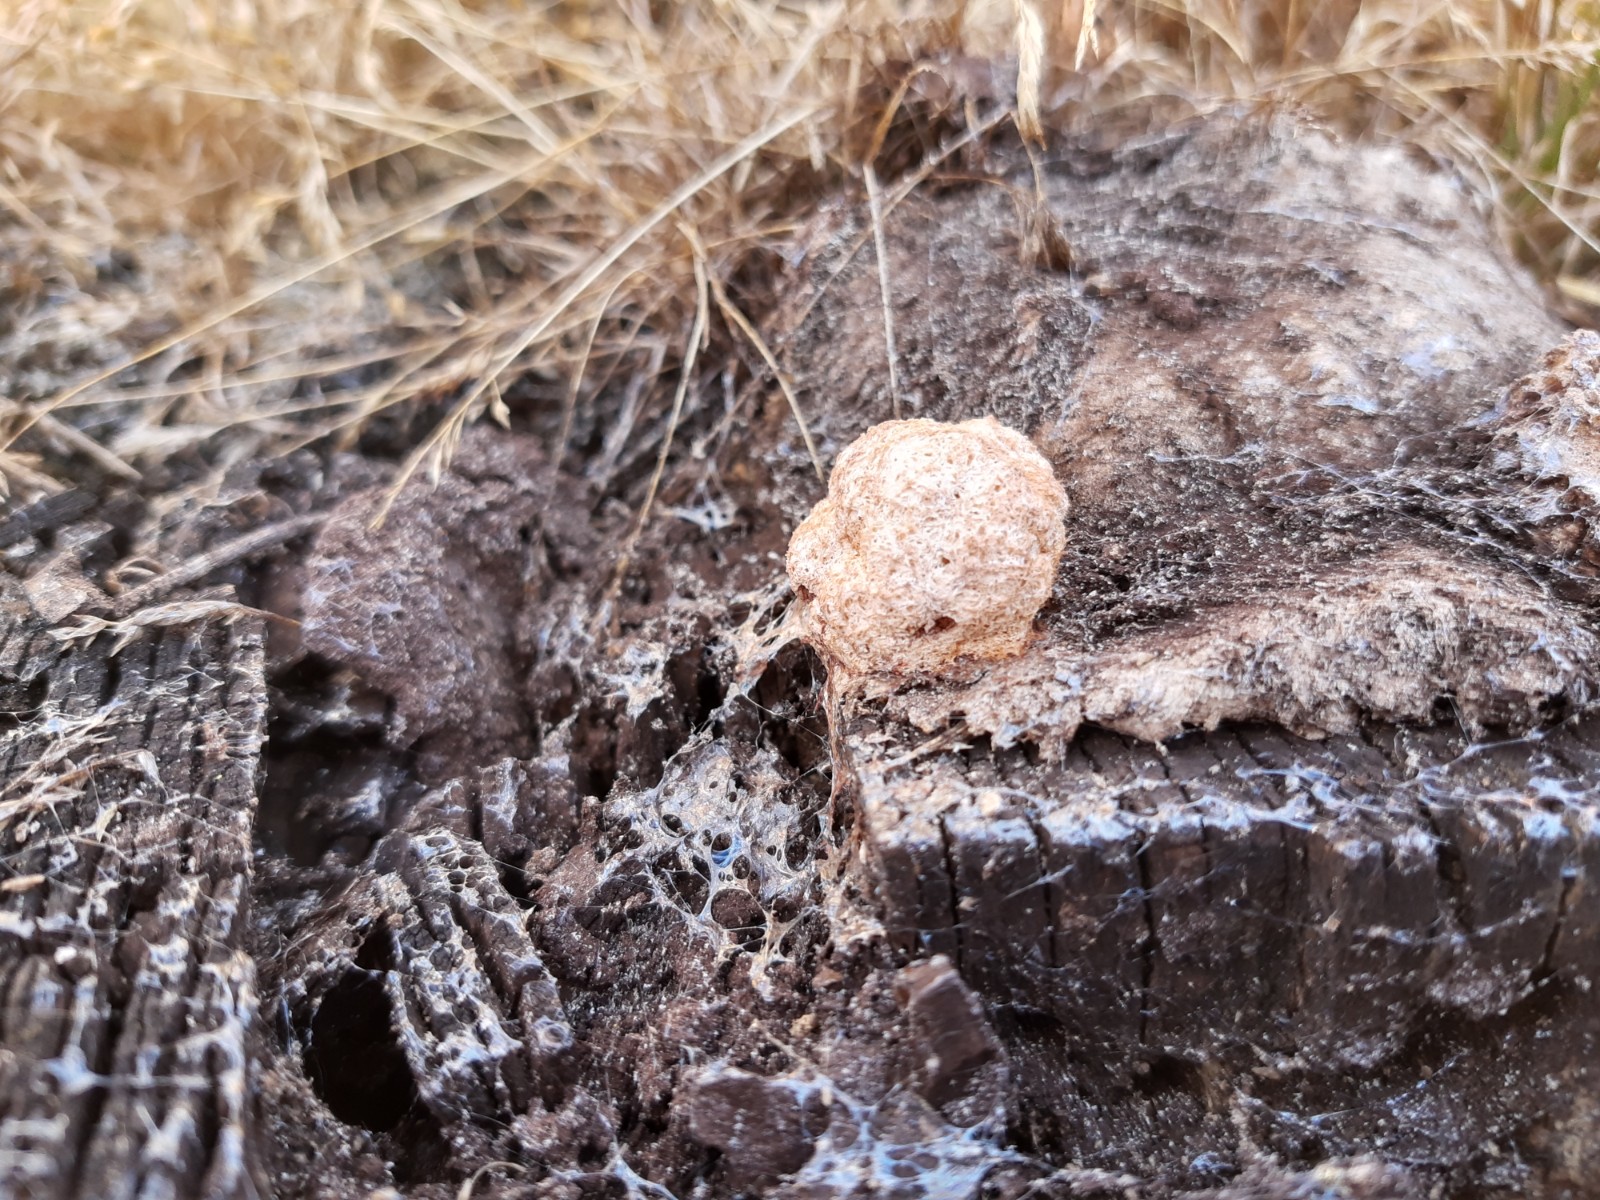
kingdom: Protozoa
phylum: Mycetozoa
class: Myxomycetes
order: Physarales
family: Physaraceae
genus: Fuligo
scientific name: Fuligo septica
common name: Dog vomit slime mold
